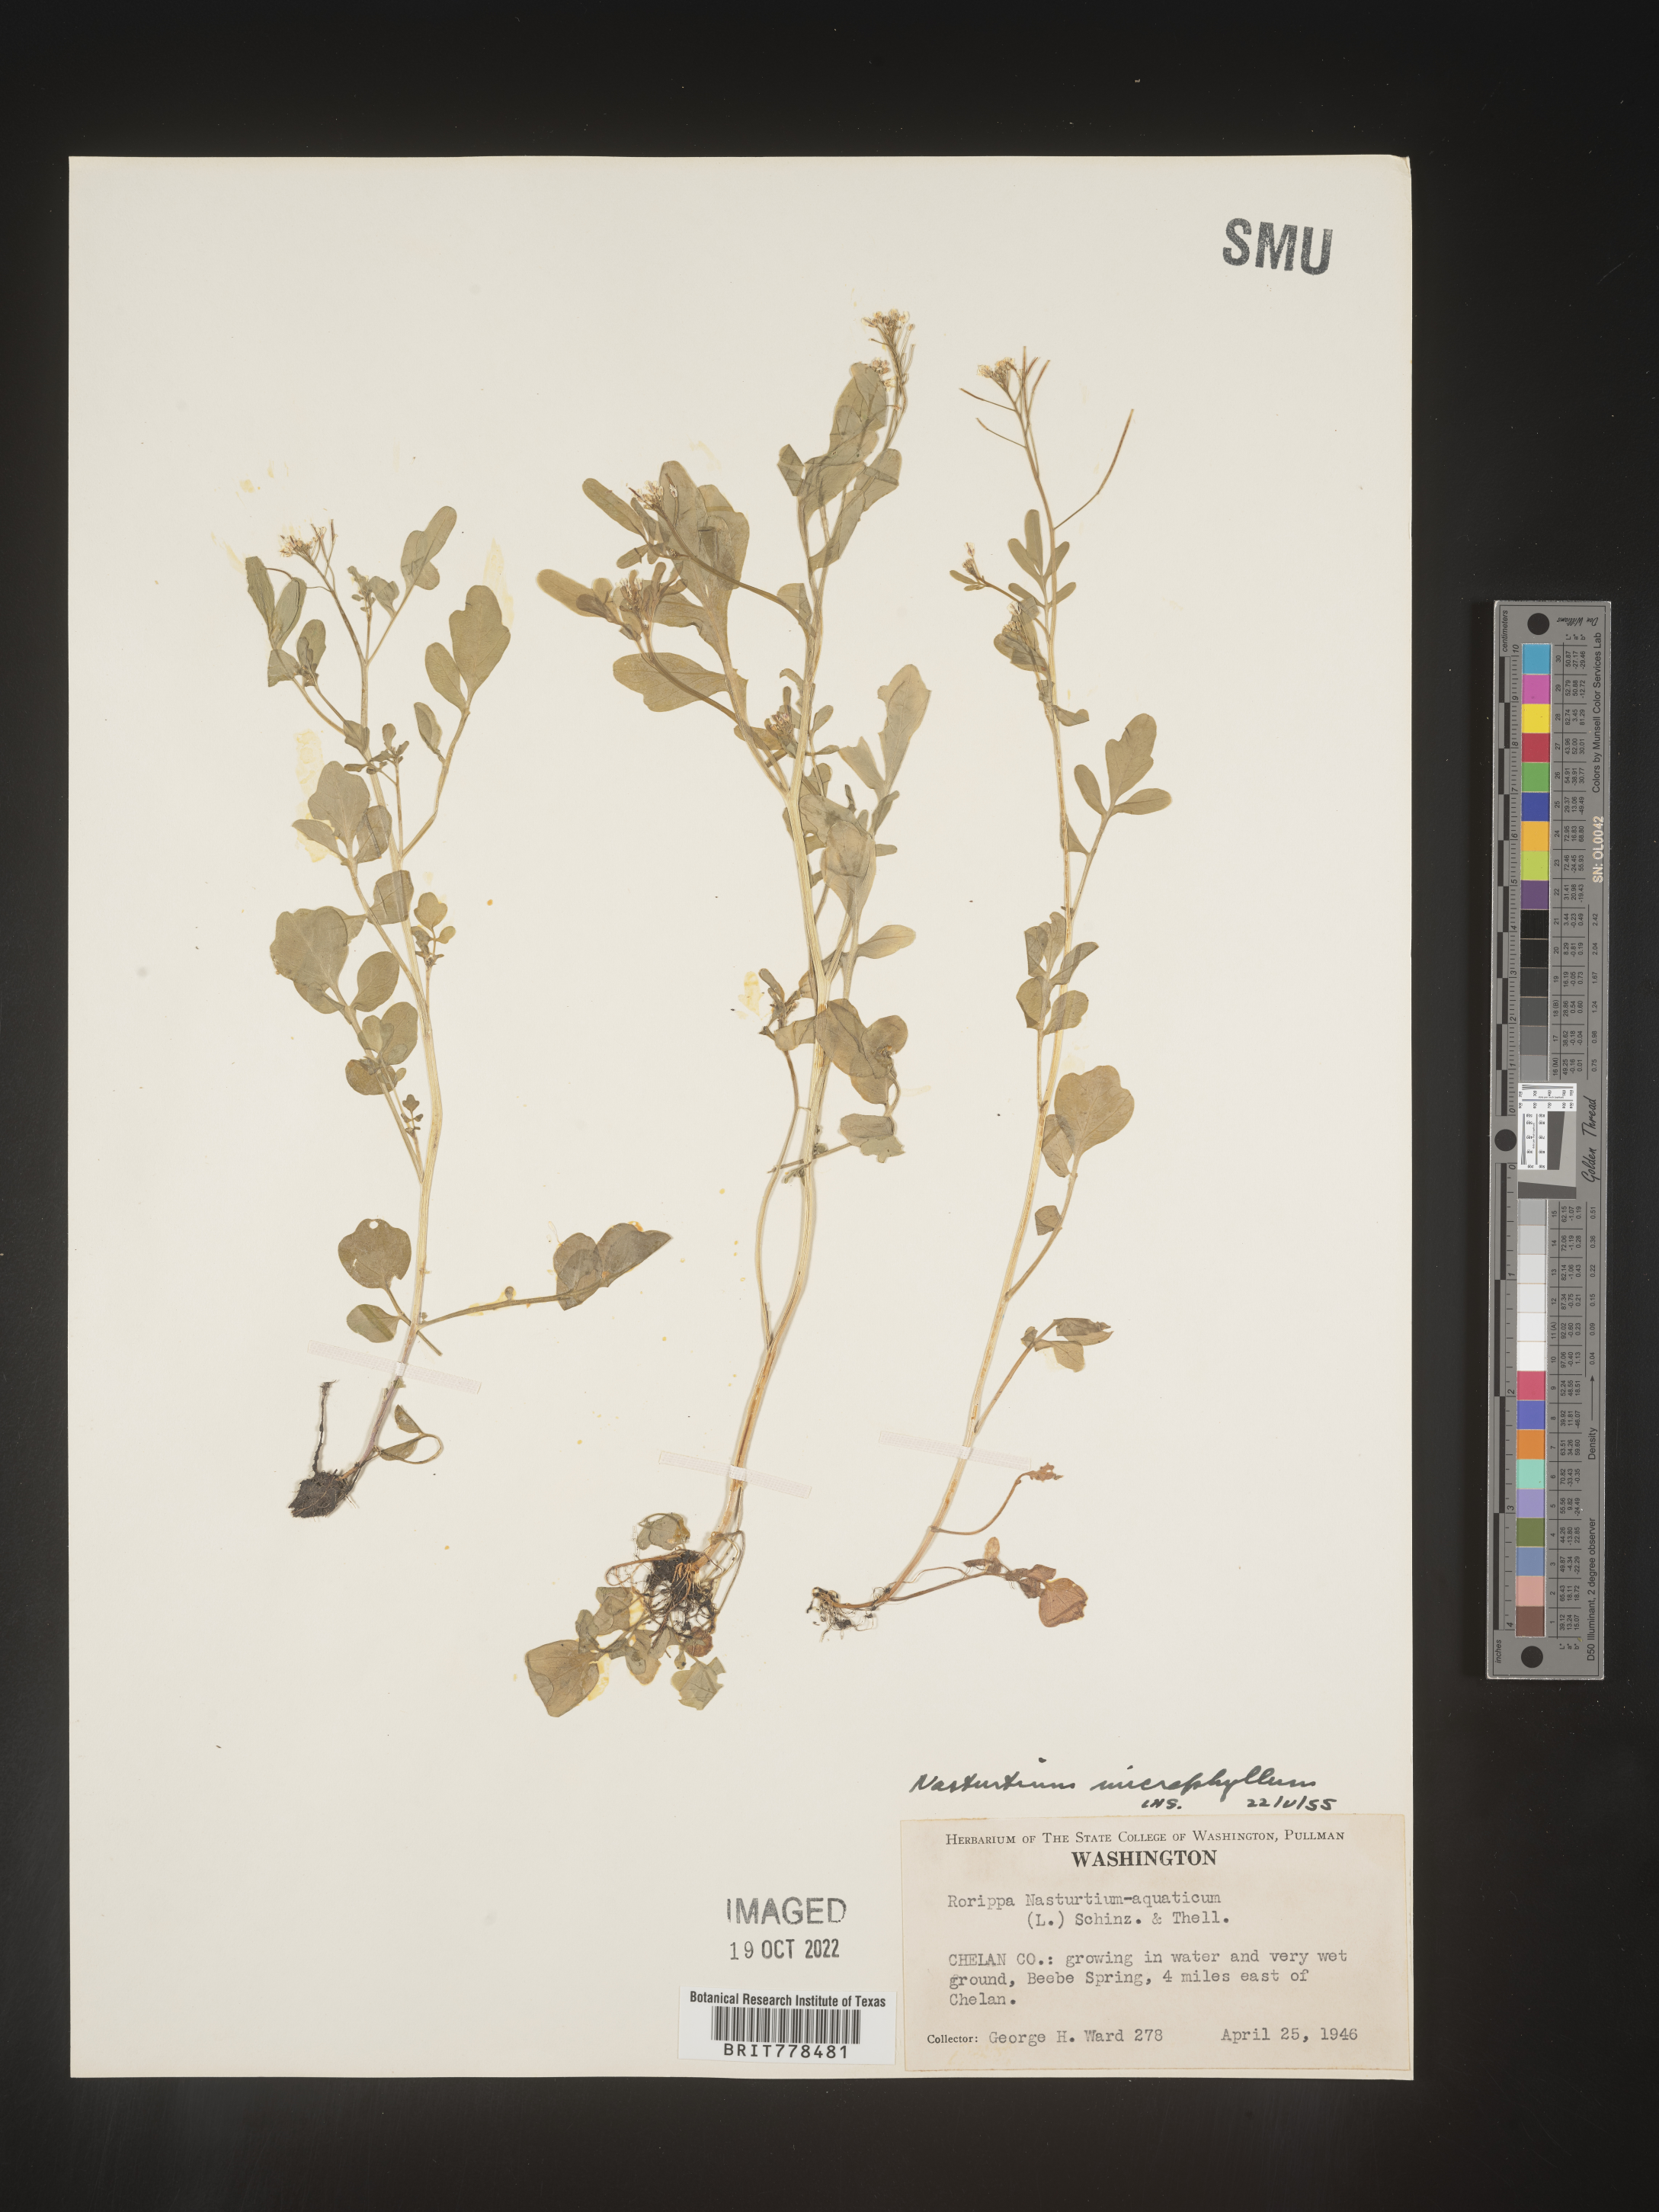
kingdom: Plantae
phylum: Tracheophyta
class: Magnoliopsida
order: Brassicales
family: Brassicaceae
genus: Nasturtium
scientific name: Nasturtium officinale
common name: Watercress
